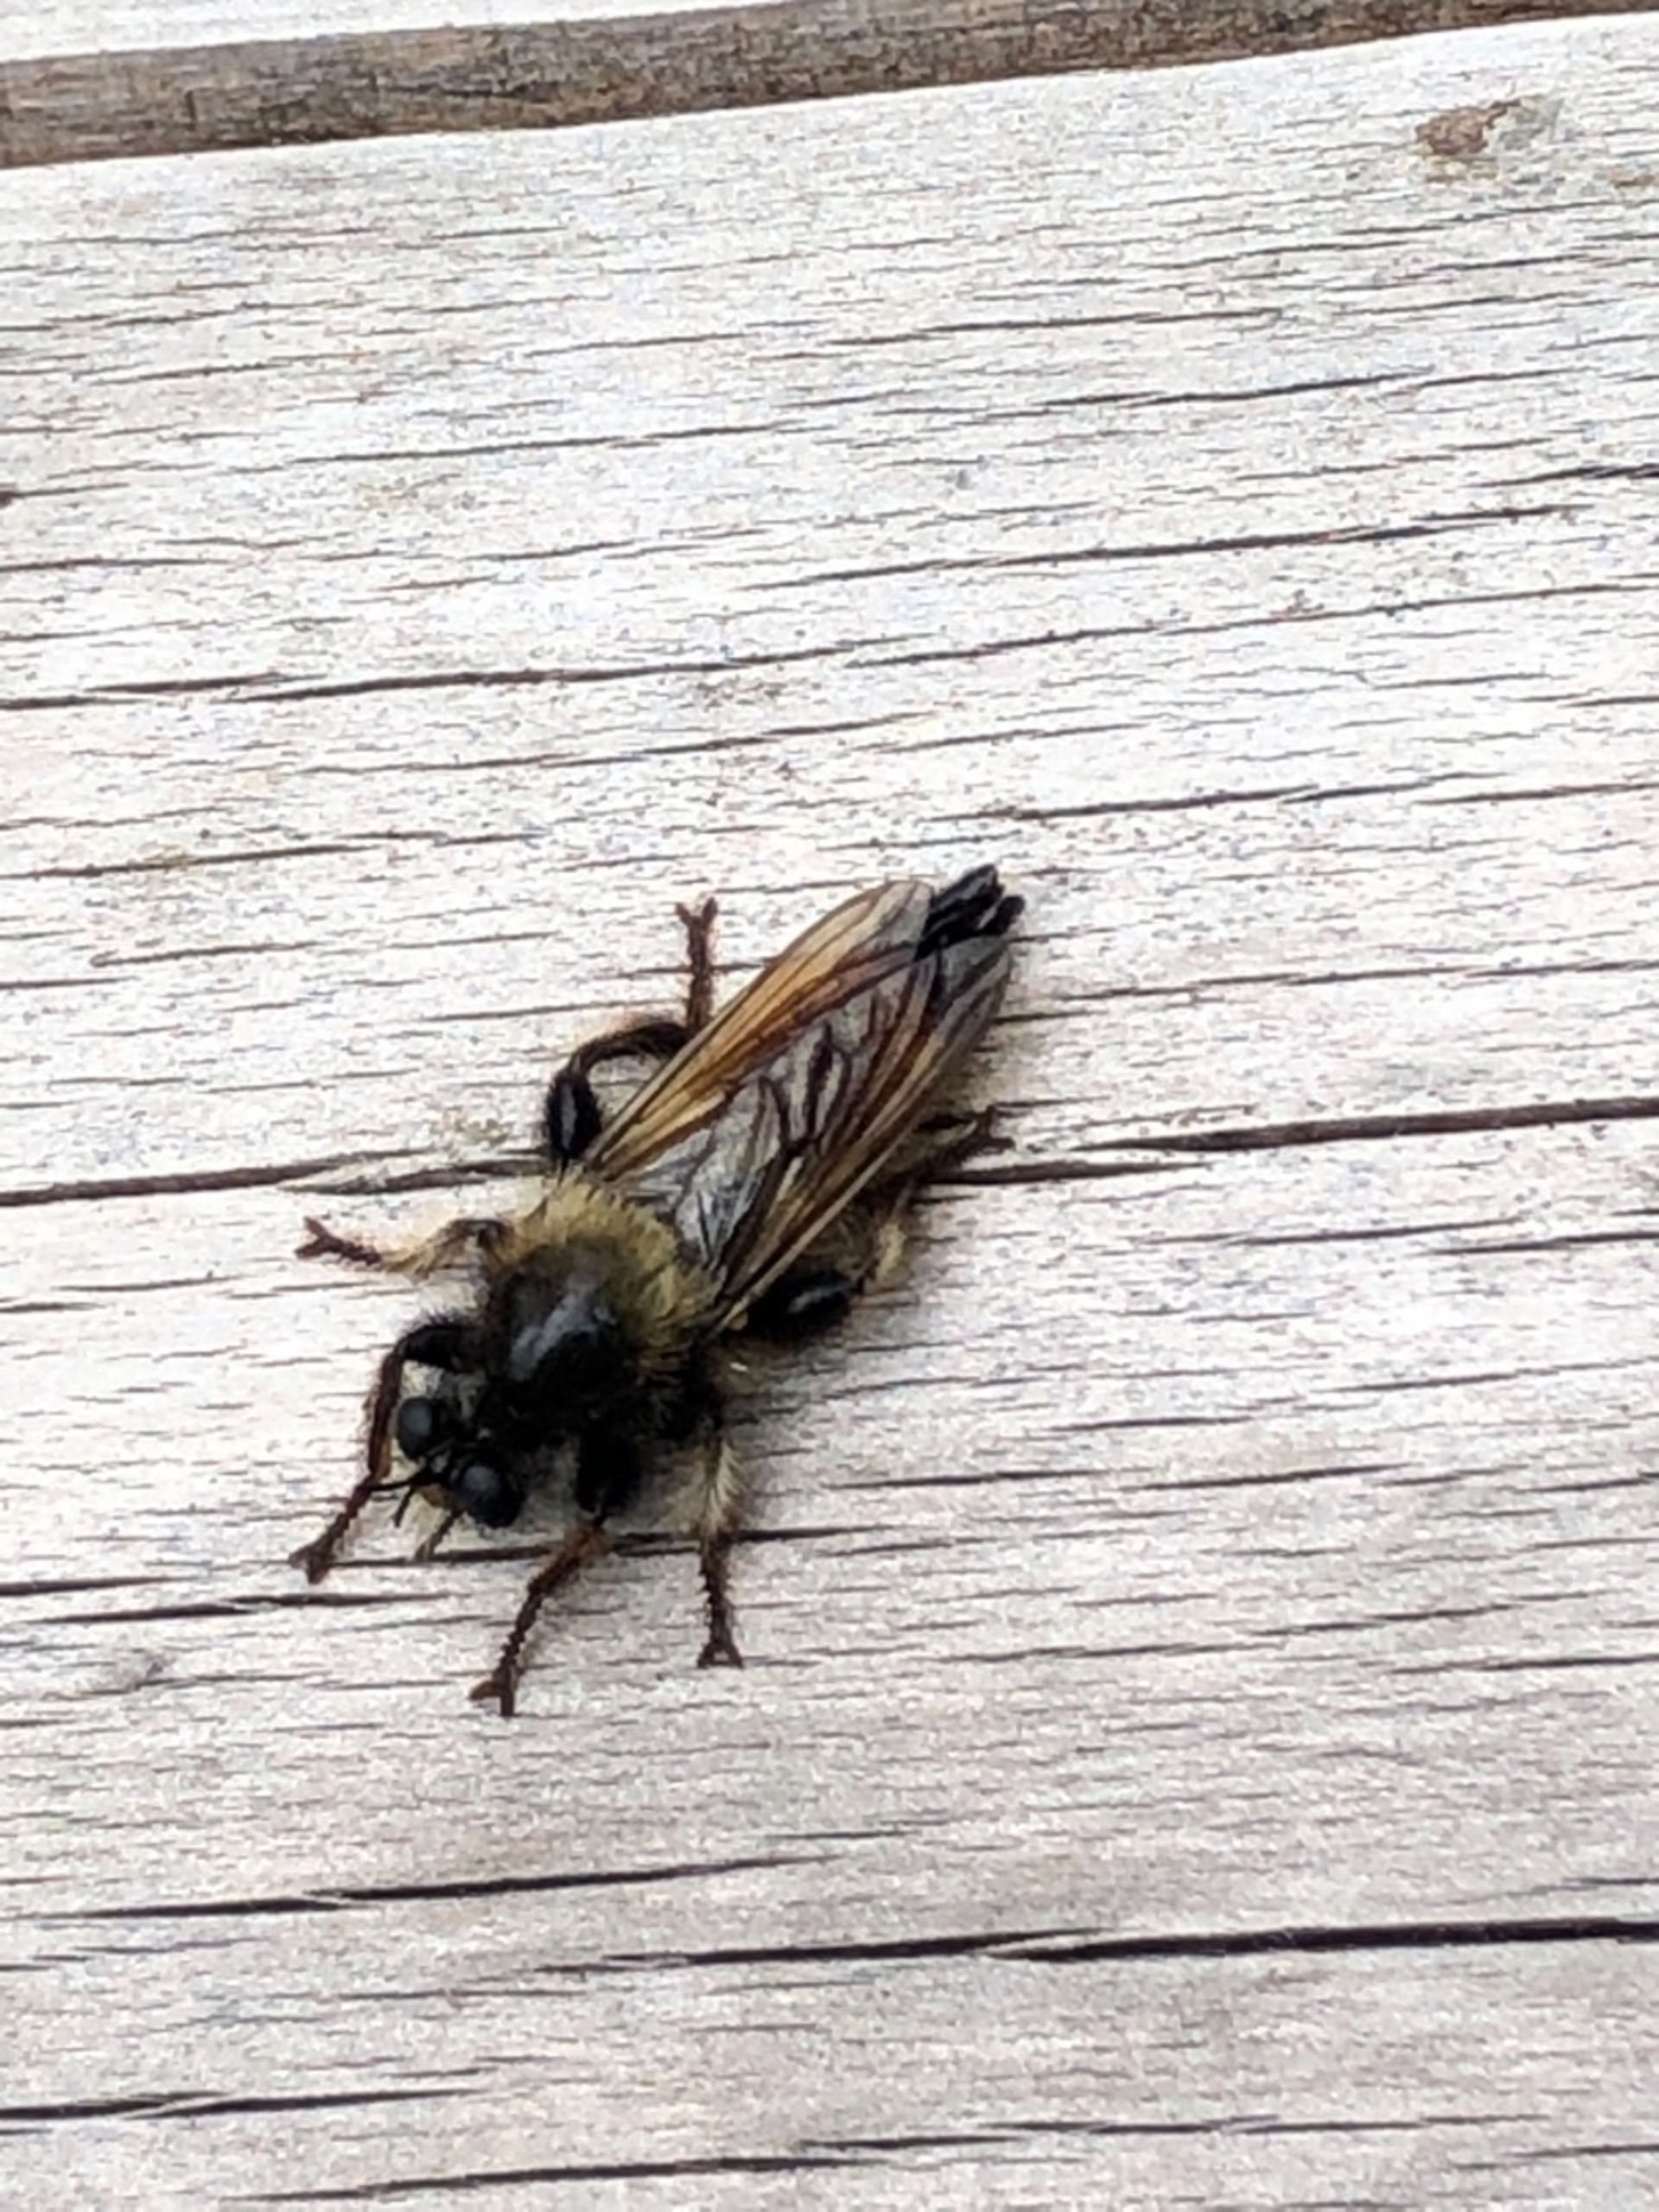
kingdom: Animalia
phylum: Arthropoda
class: Insecta
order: Diptera
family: Asilidae
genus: Laphria
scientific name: Laphria flava
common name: Gul vedrovflue
